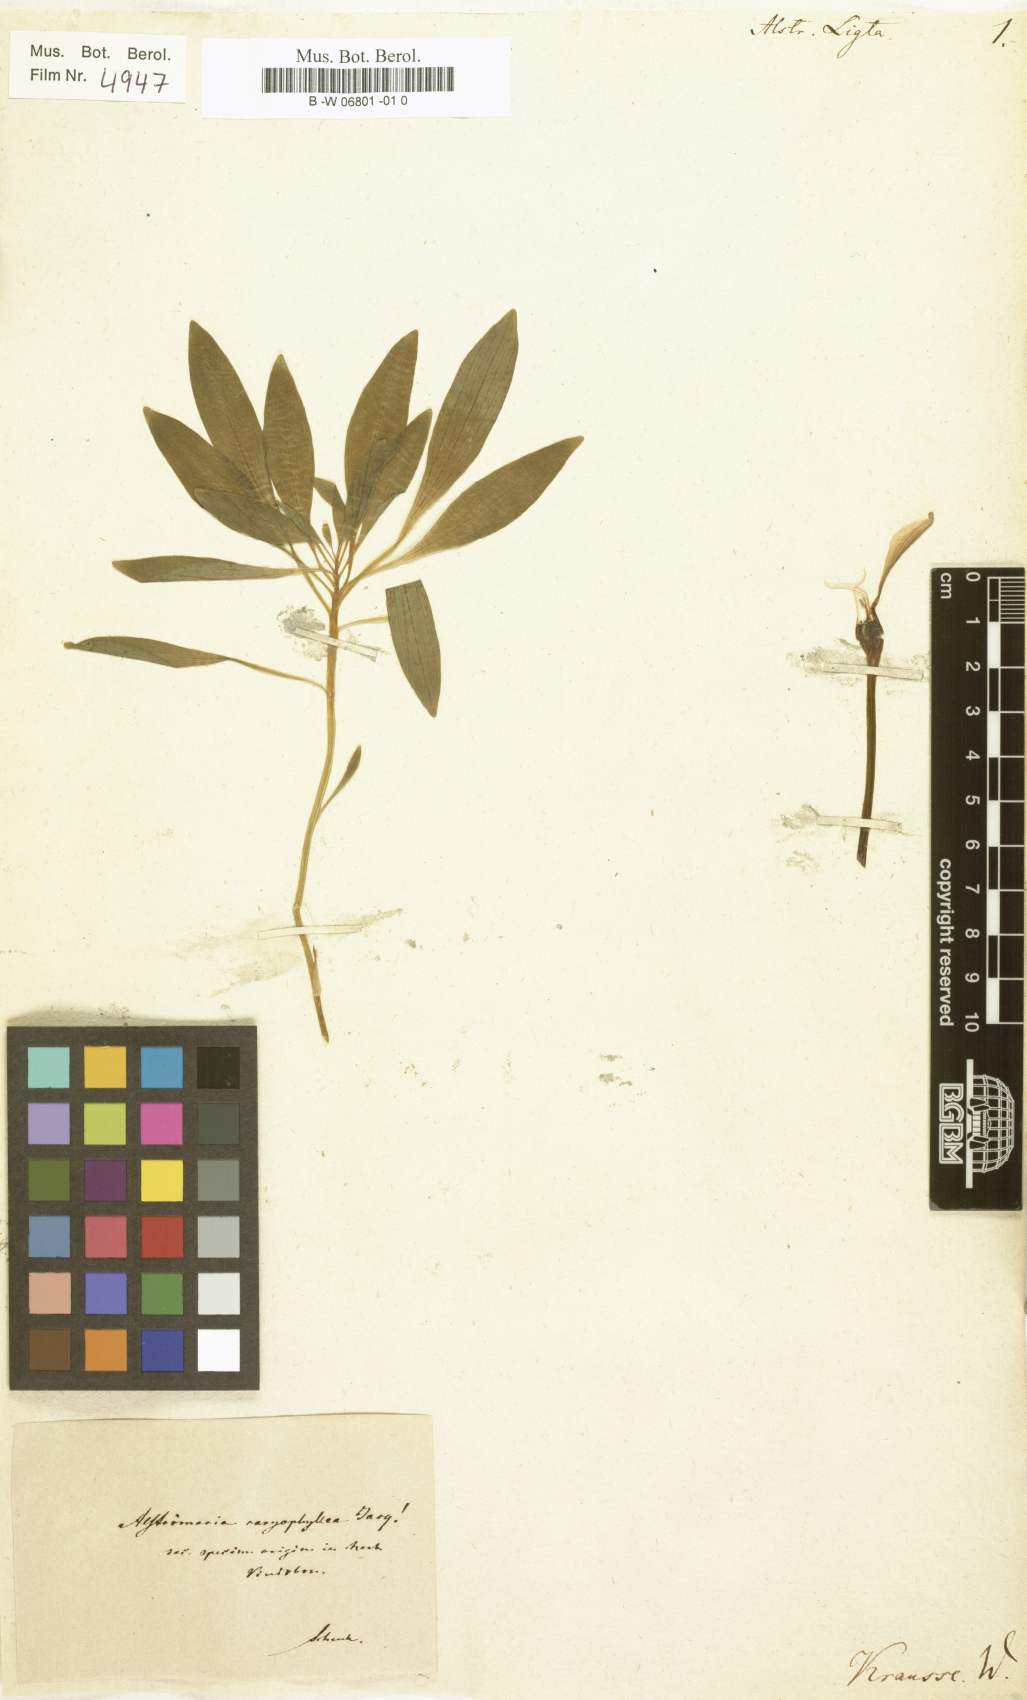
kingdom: Plantae
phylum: Tracheophyta
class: Liliopsida
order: Liliales
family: Alstroemeriaceae
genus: Alstroemeria
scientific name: Alstroemeria ligtu
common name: St. martin's-flower
